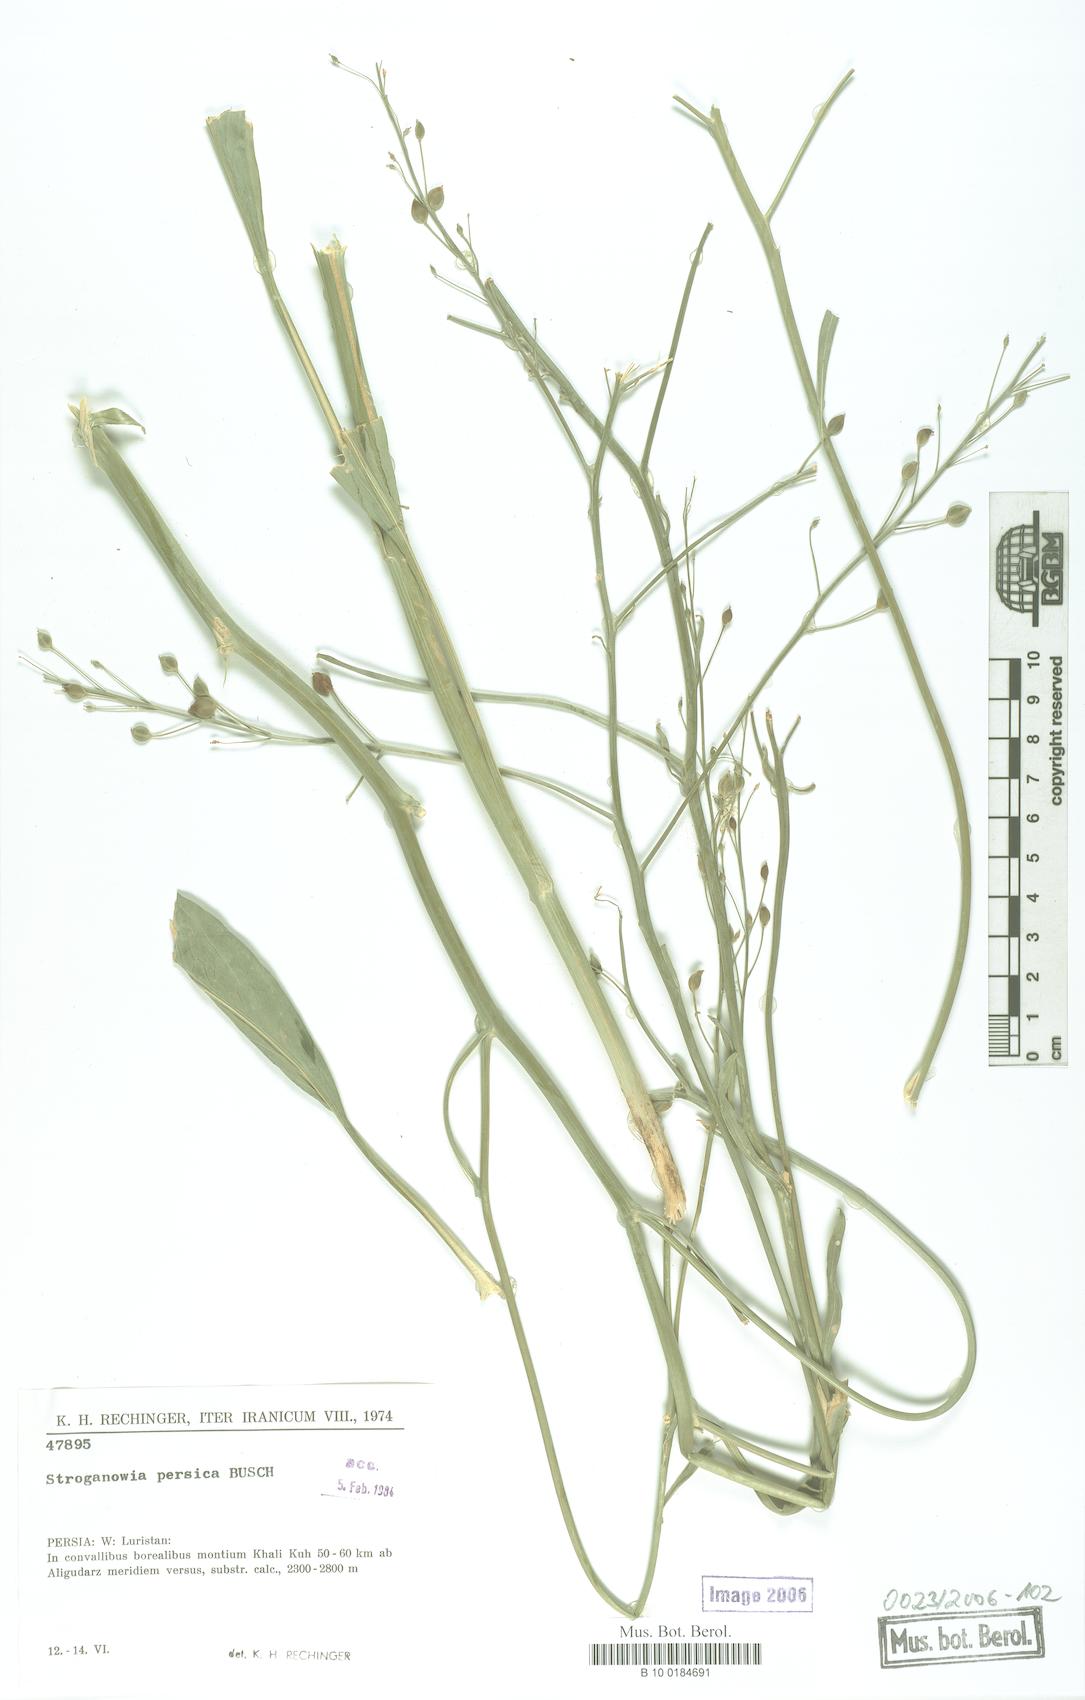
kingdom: Plantae
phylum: Tracheophyta
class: Magnoliopsida
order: Brassicales
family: Brassicaceae
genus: Lepidium
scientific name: Lepidium buschianum
